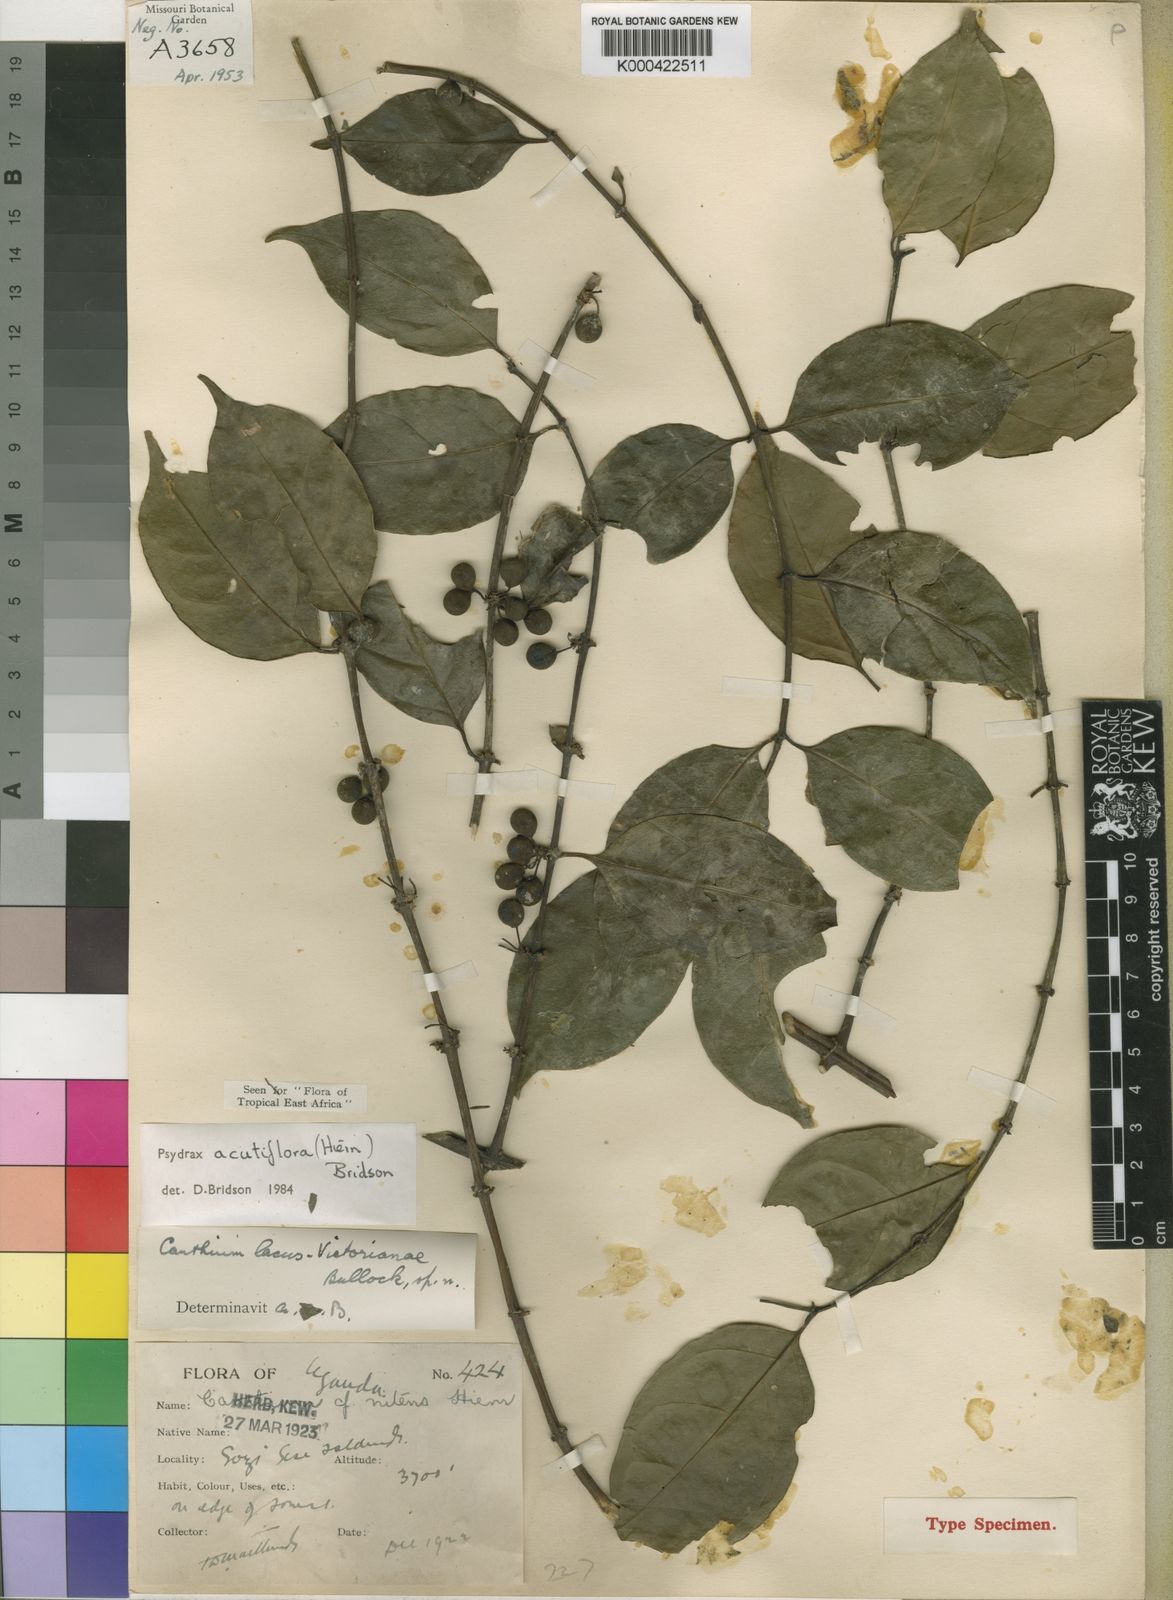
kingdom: Plantae
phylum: Tracheophyta
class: Magnoliopsida
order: Gentianales
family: Rubiaceae
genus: Psydrax
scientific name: Psydrax acutiflorus
